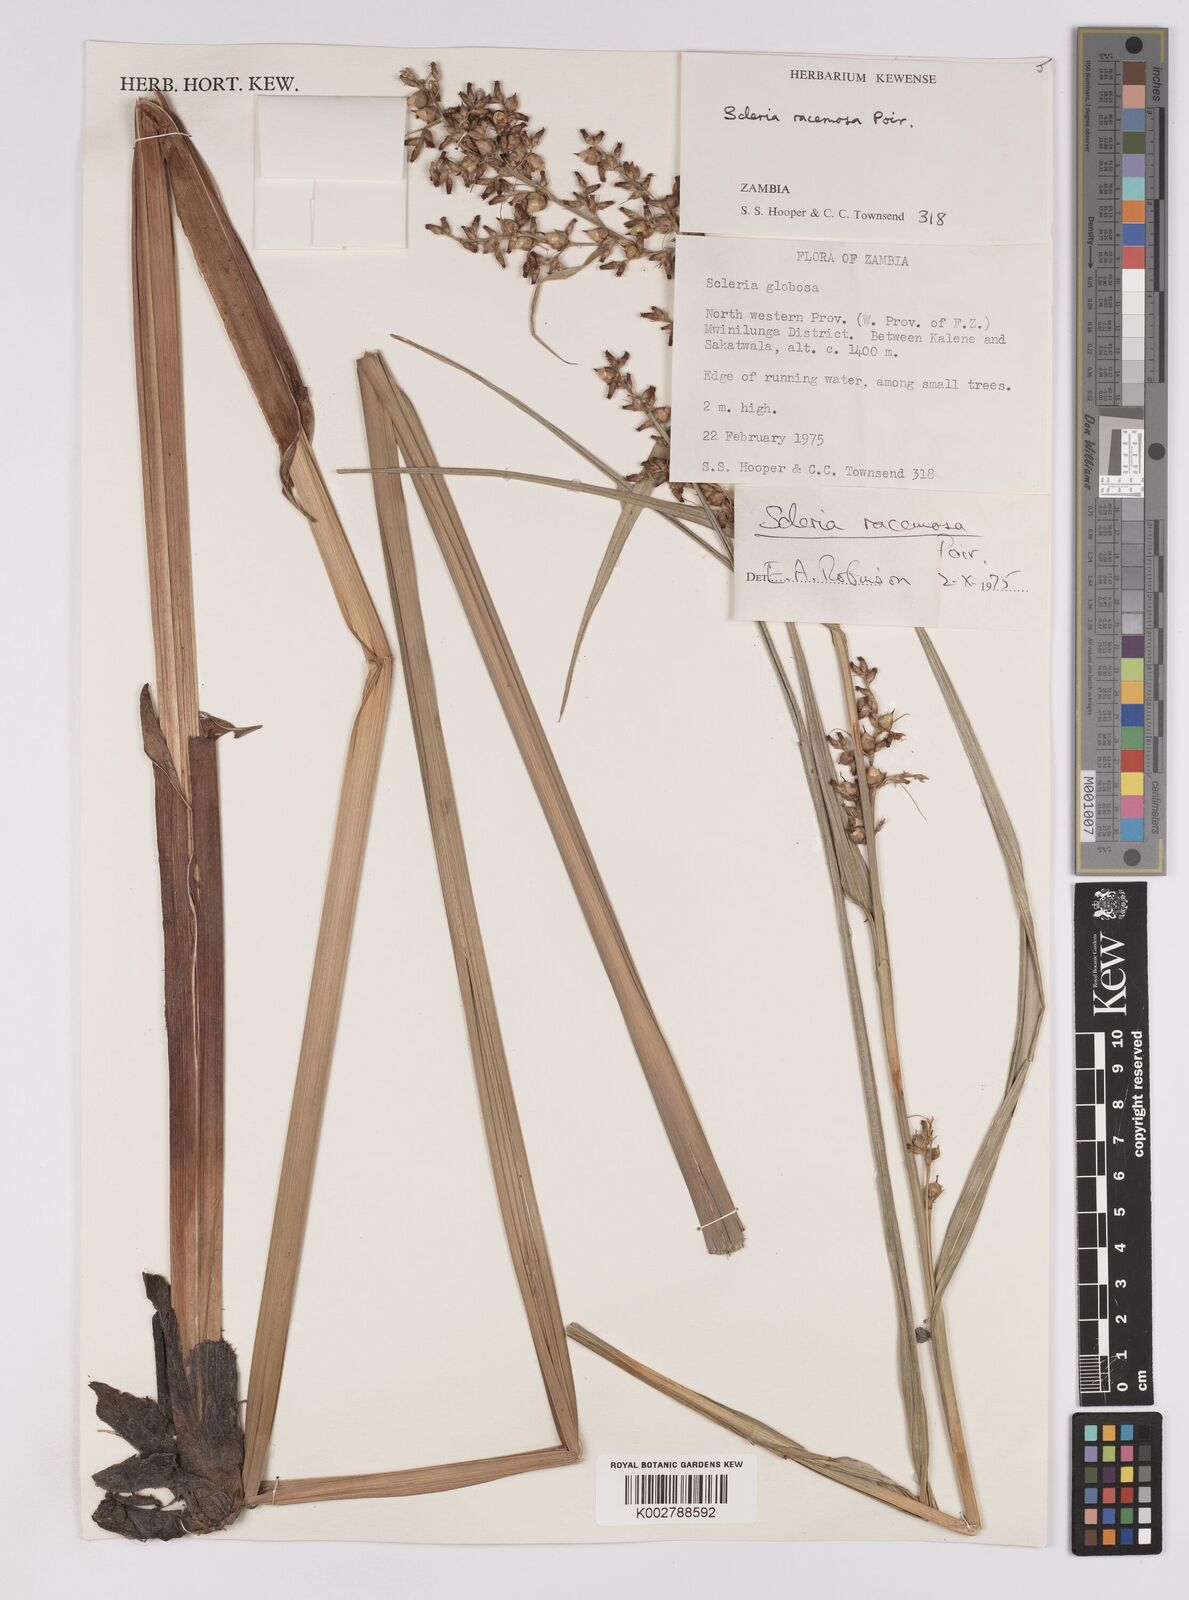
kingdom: Plantae
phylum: Tracheophyta
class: Liliopsida
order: Poales
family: Cyperaceae
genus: Scleria
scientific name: Scleria racemosa
